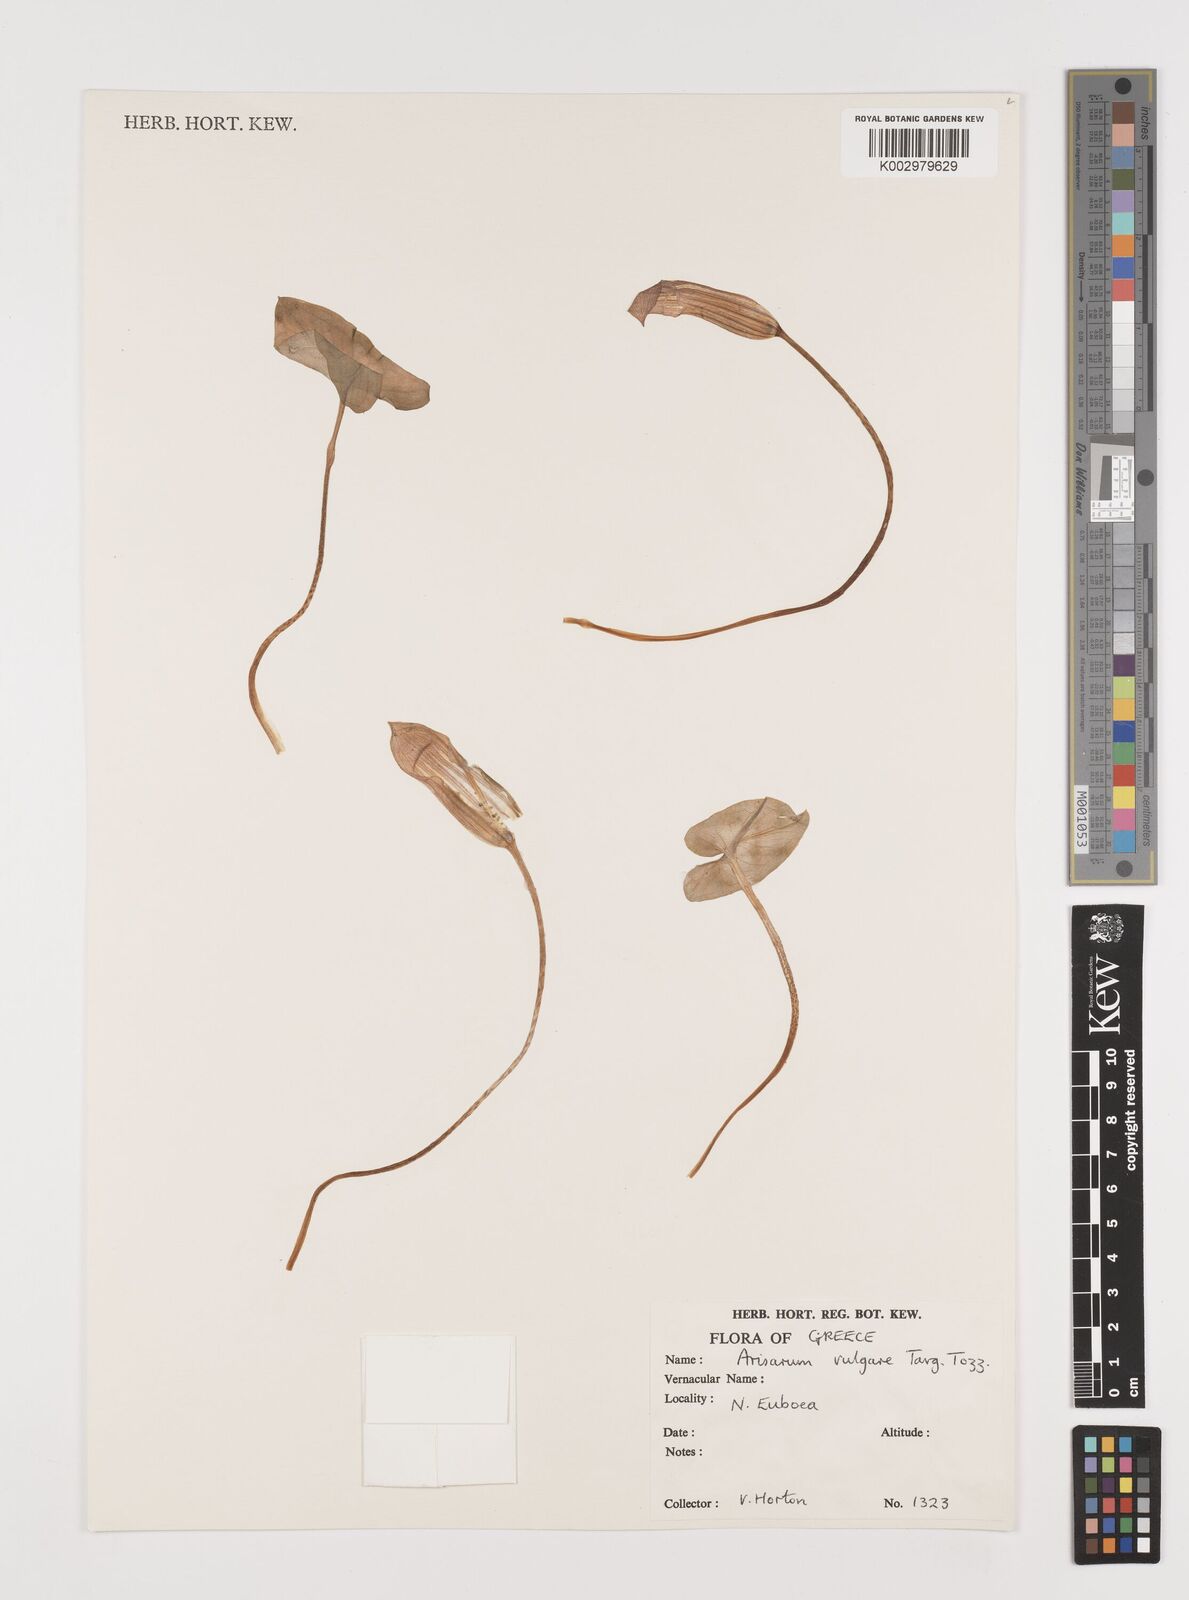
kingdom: Plantae
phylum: Tracheophyta
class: Liliopsida
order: Alismatales
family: Araceae
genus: Arisarum
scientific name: Arisarum vulgare
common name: Common arisarum
